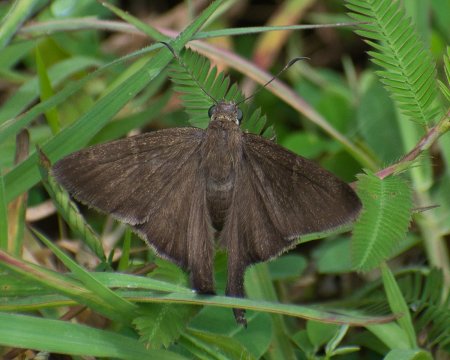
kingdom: Animalia
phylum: Arthropoda
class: Insecta
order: Lepidoptera
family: Hesperiidae
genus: Urbanus
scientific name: Urbanus simplicius
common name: Plain Longtail
